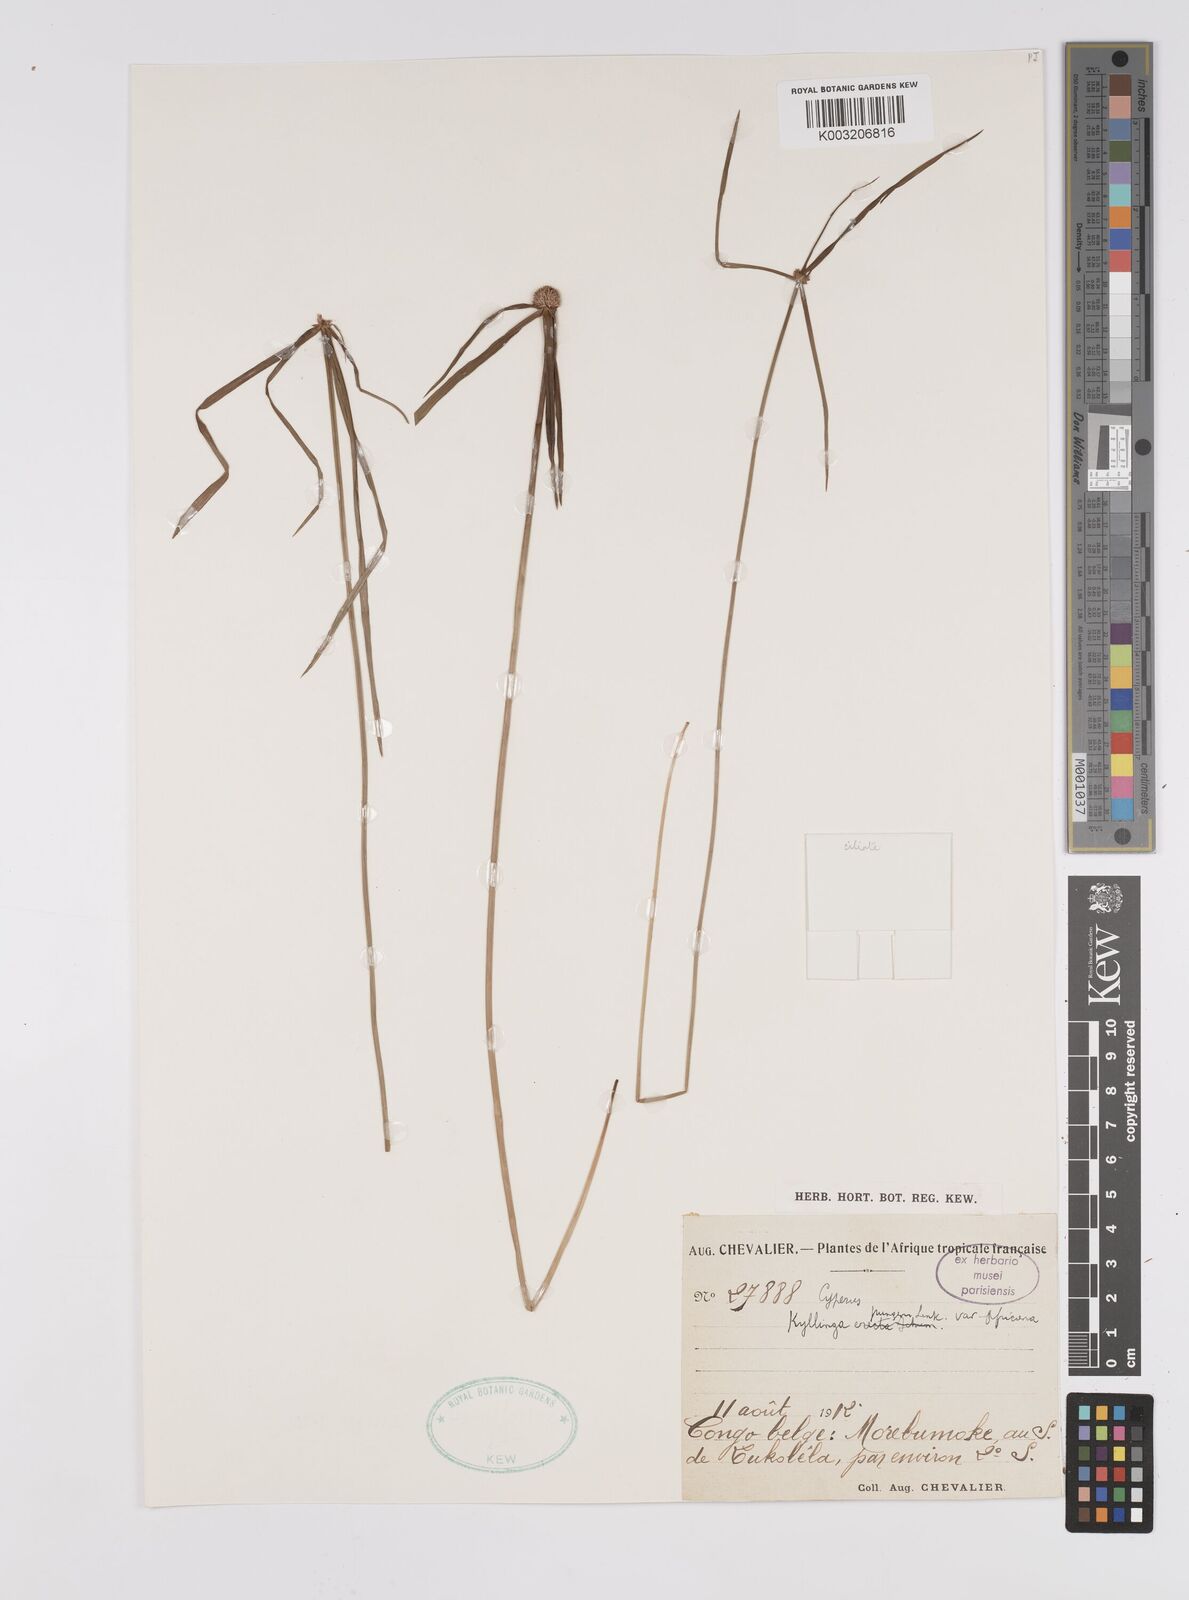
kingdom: Plantae
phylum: Tracheophyta
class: Liliopsida
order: Poales
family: Cyperaceae
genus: Cyperus
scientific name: Cyperus
